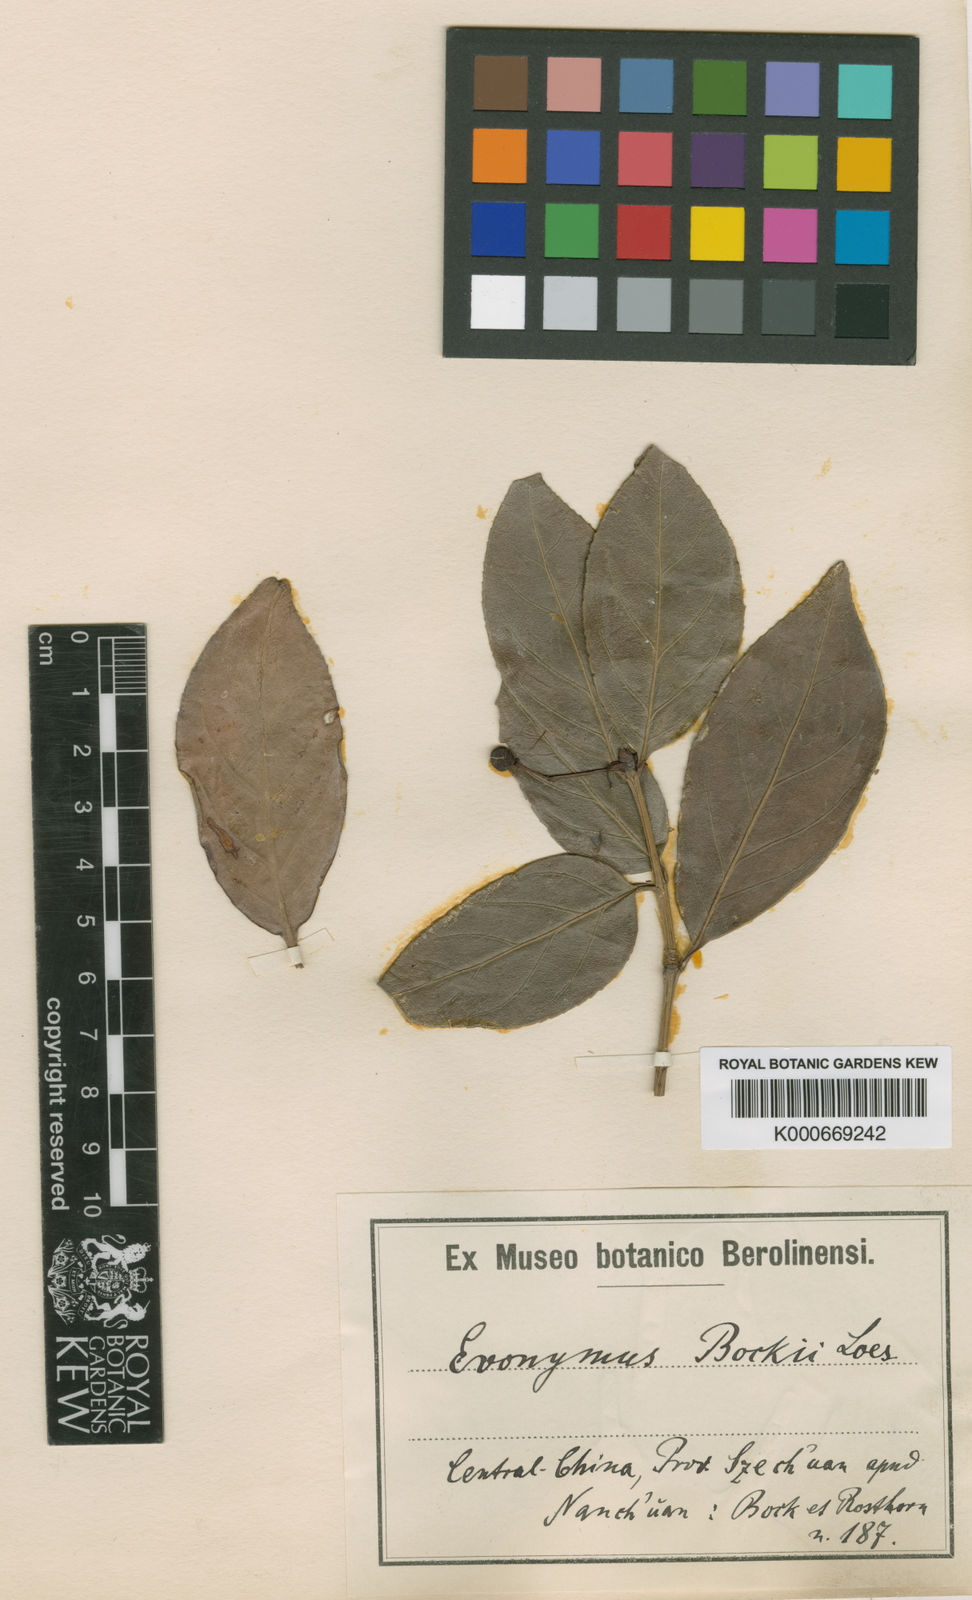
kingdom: Plantae
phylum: Tracheophyta
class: Magnoliopsida
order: Celastrales
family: Celastraceae
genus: Euonymus
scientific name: Euonymus bockii
